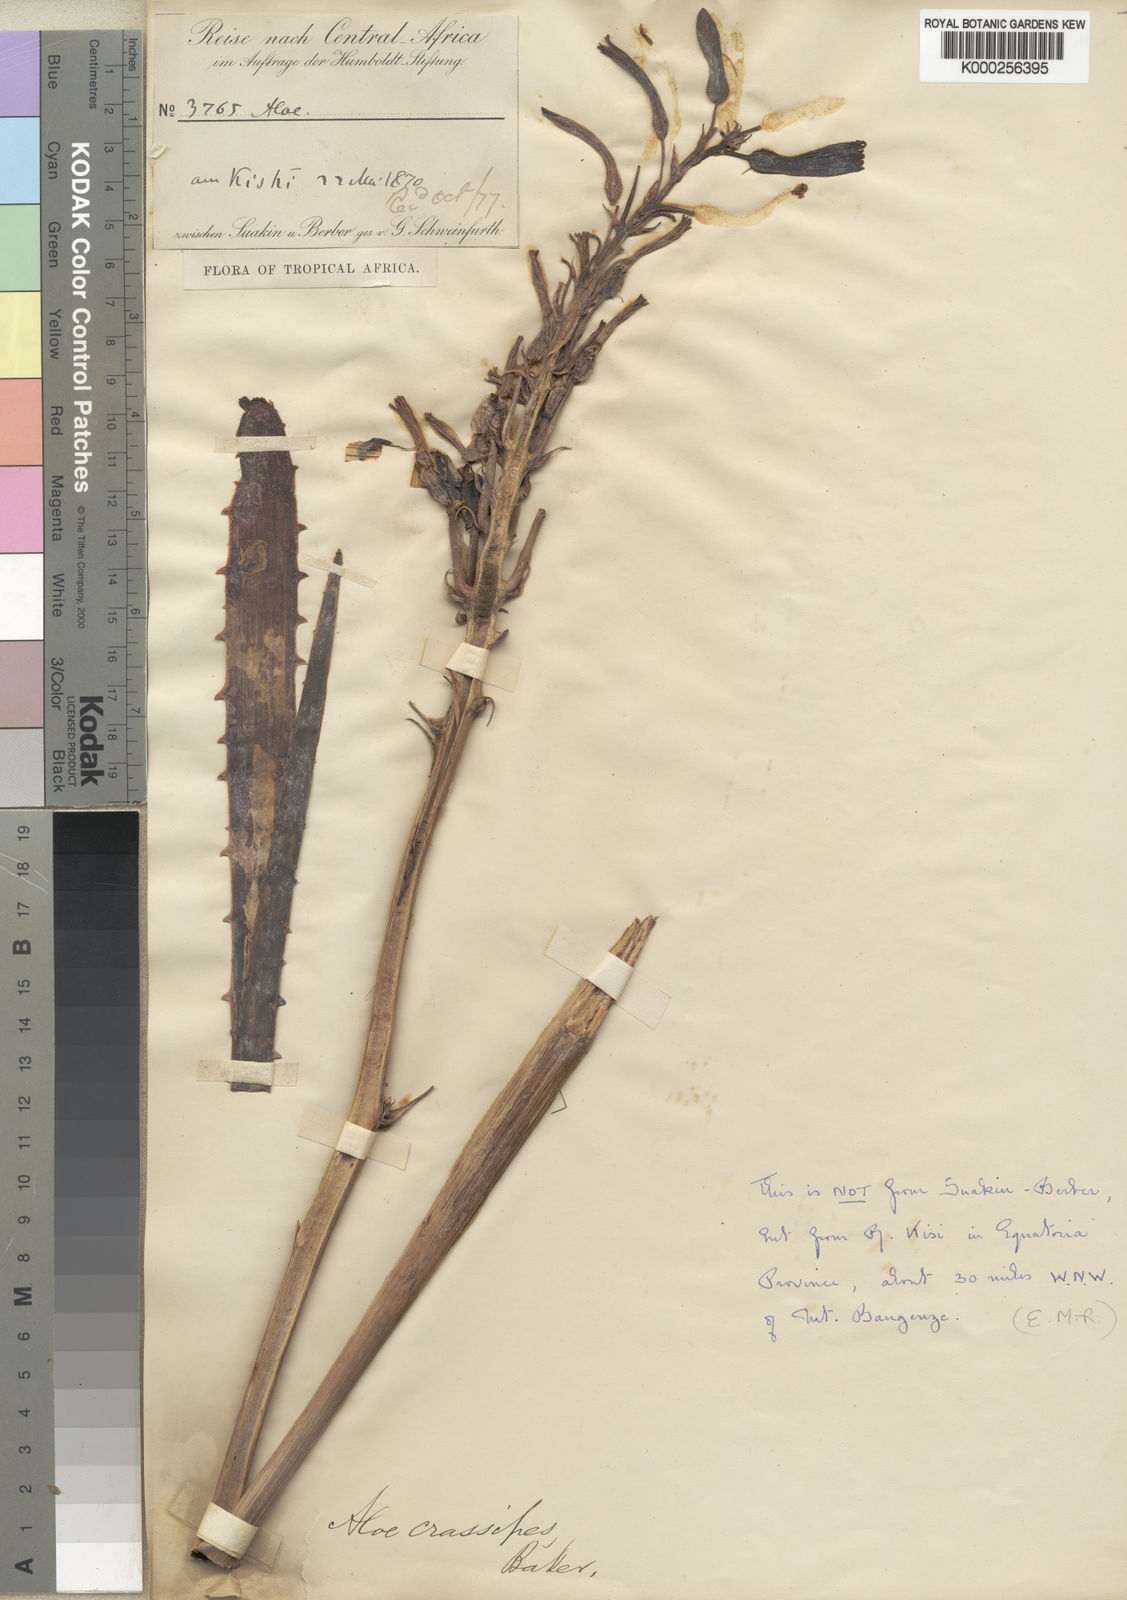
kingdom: Plantae
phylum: Tracheophyta
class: Liliopsida
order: Asparagales
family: Asphodelaceae
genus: Aloe
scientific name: Aloe crassipes
